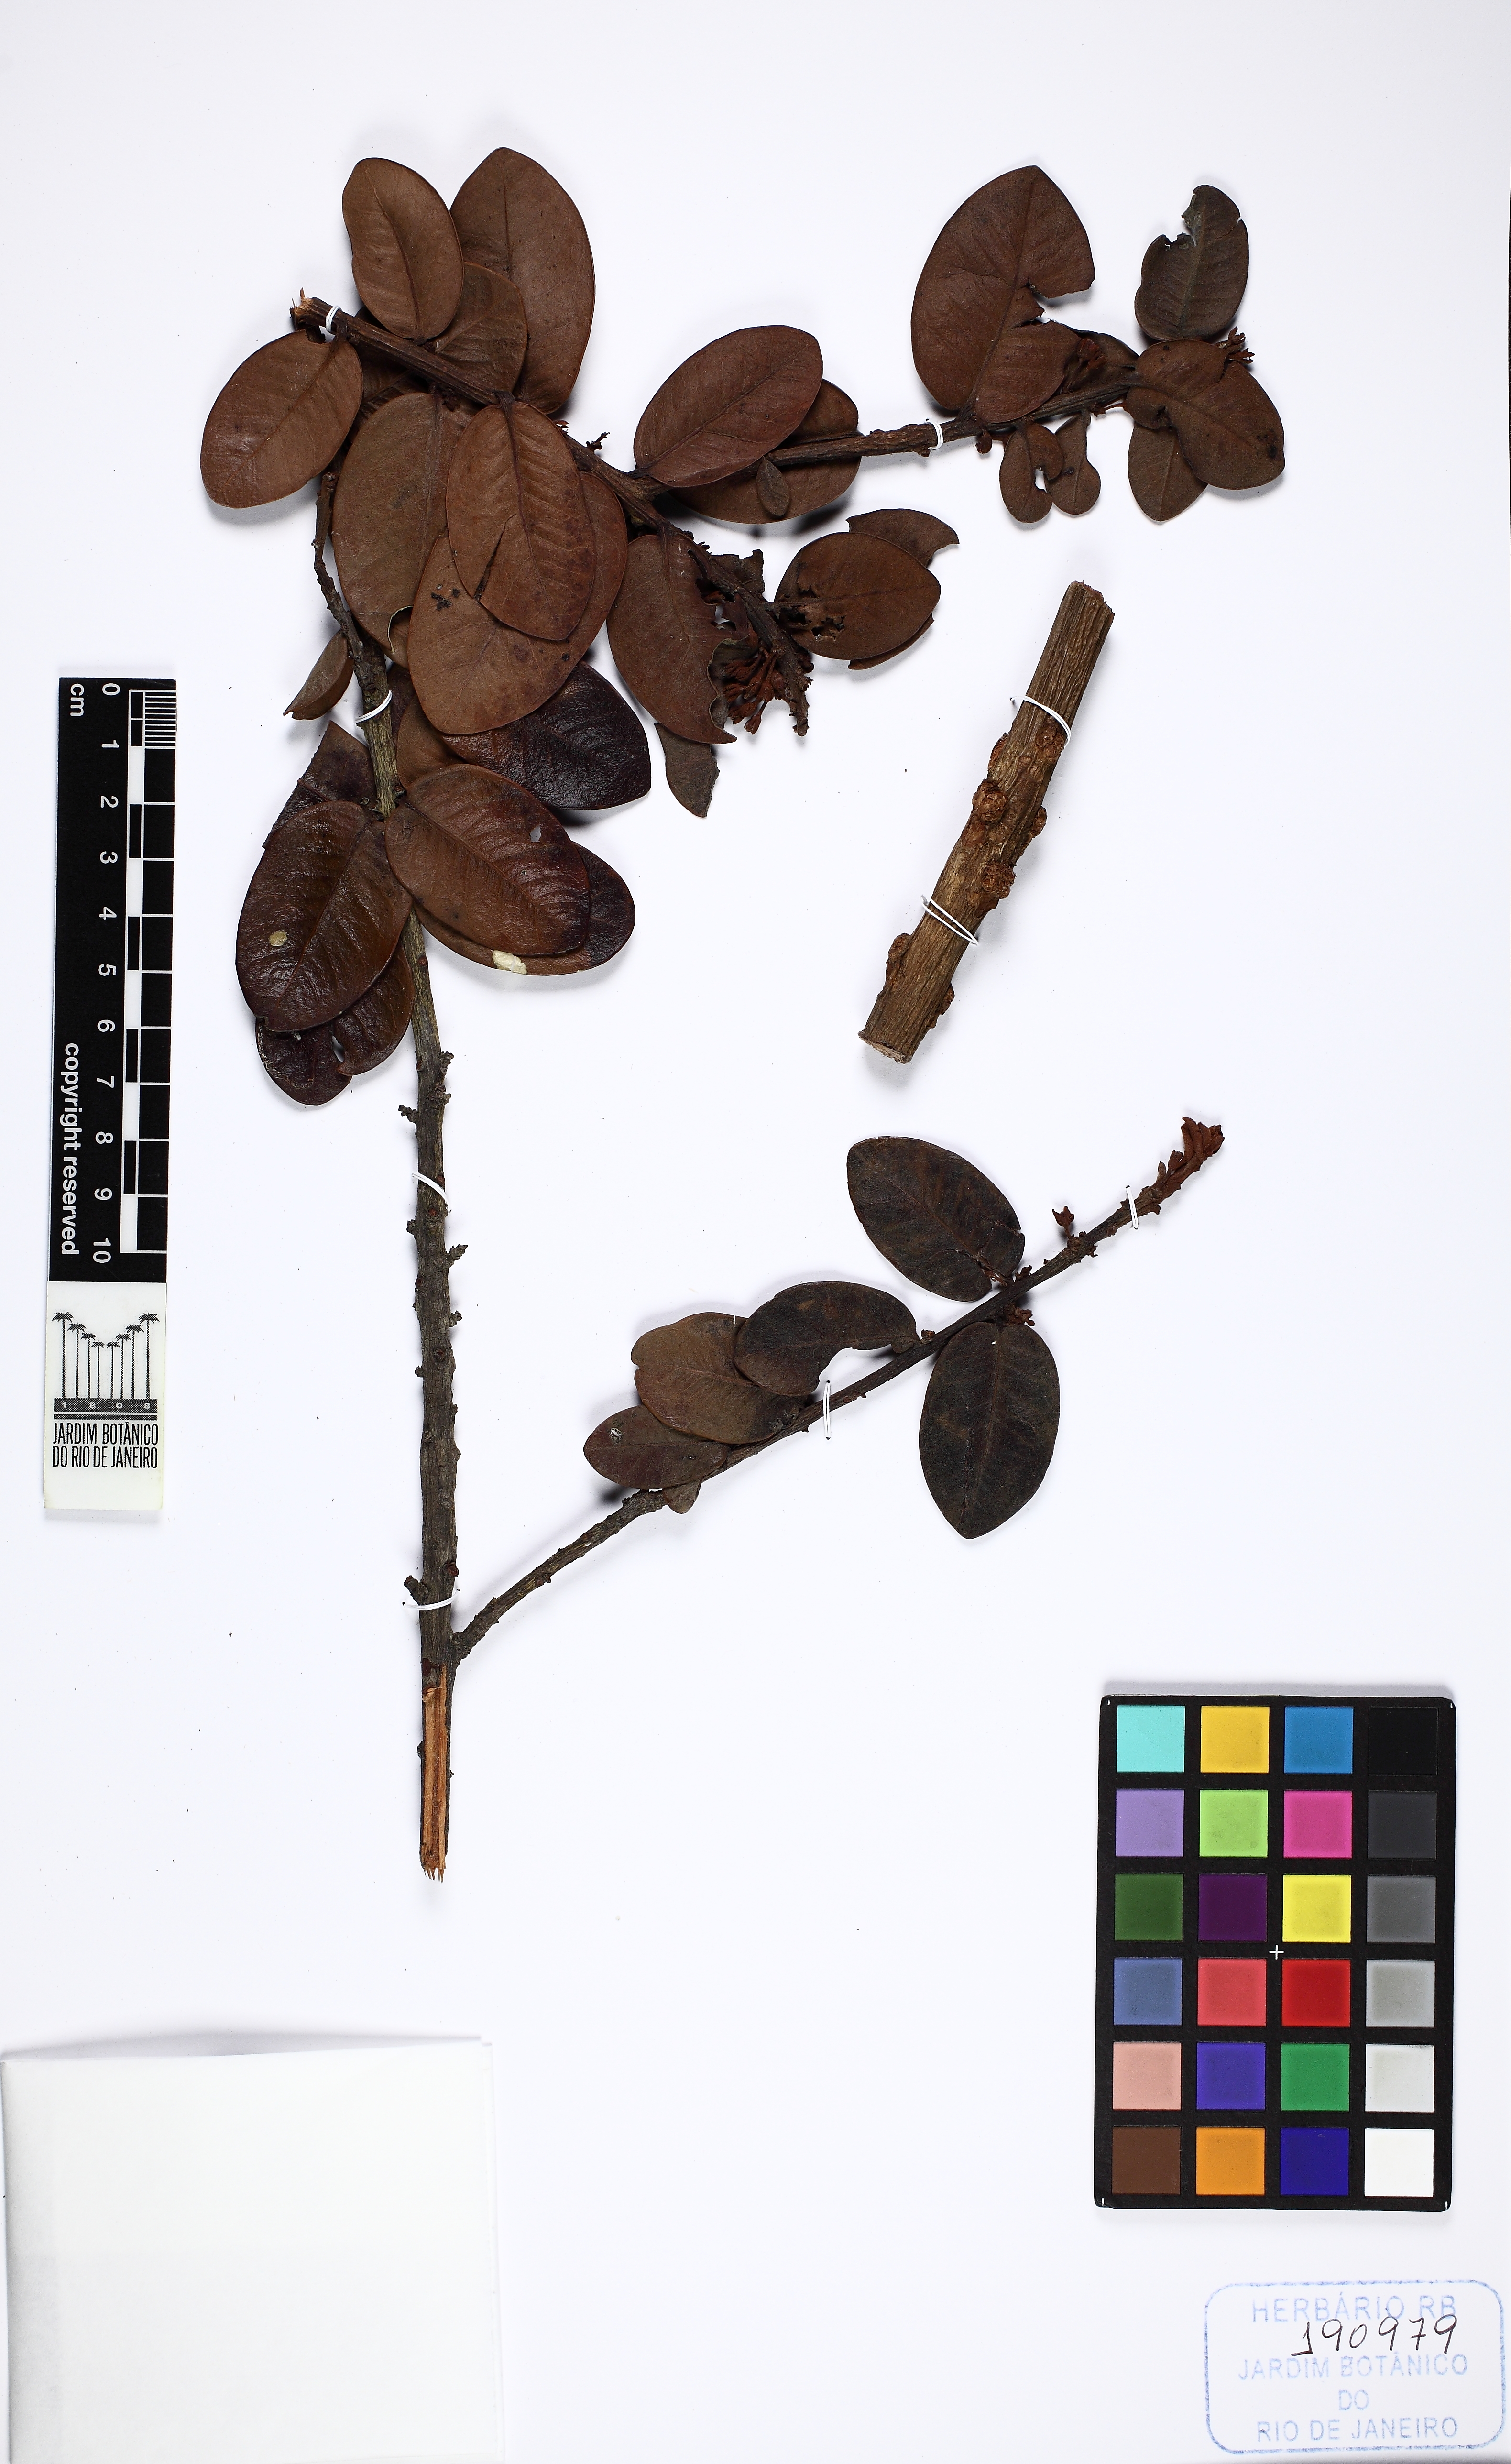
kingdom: Plantae
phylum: Tracheophyta
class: Magnoliopsida
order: Ericales
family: Sapotaceae
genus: Pouteria
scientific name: Pouteria subsessilifolia
